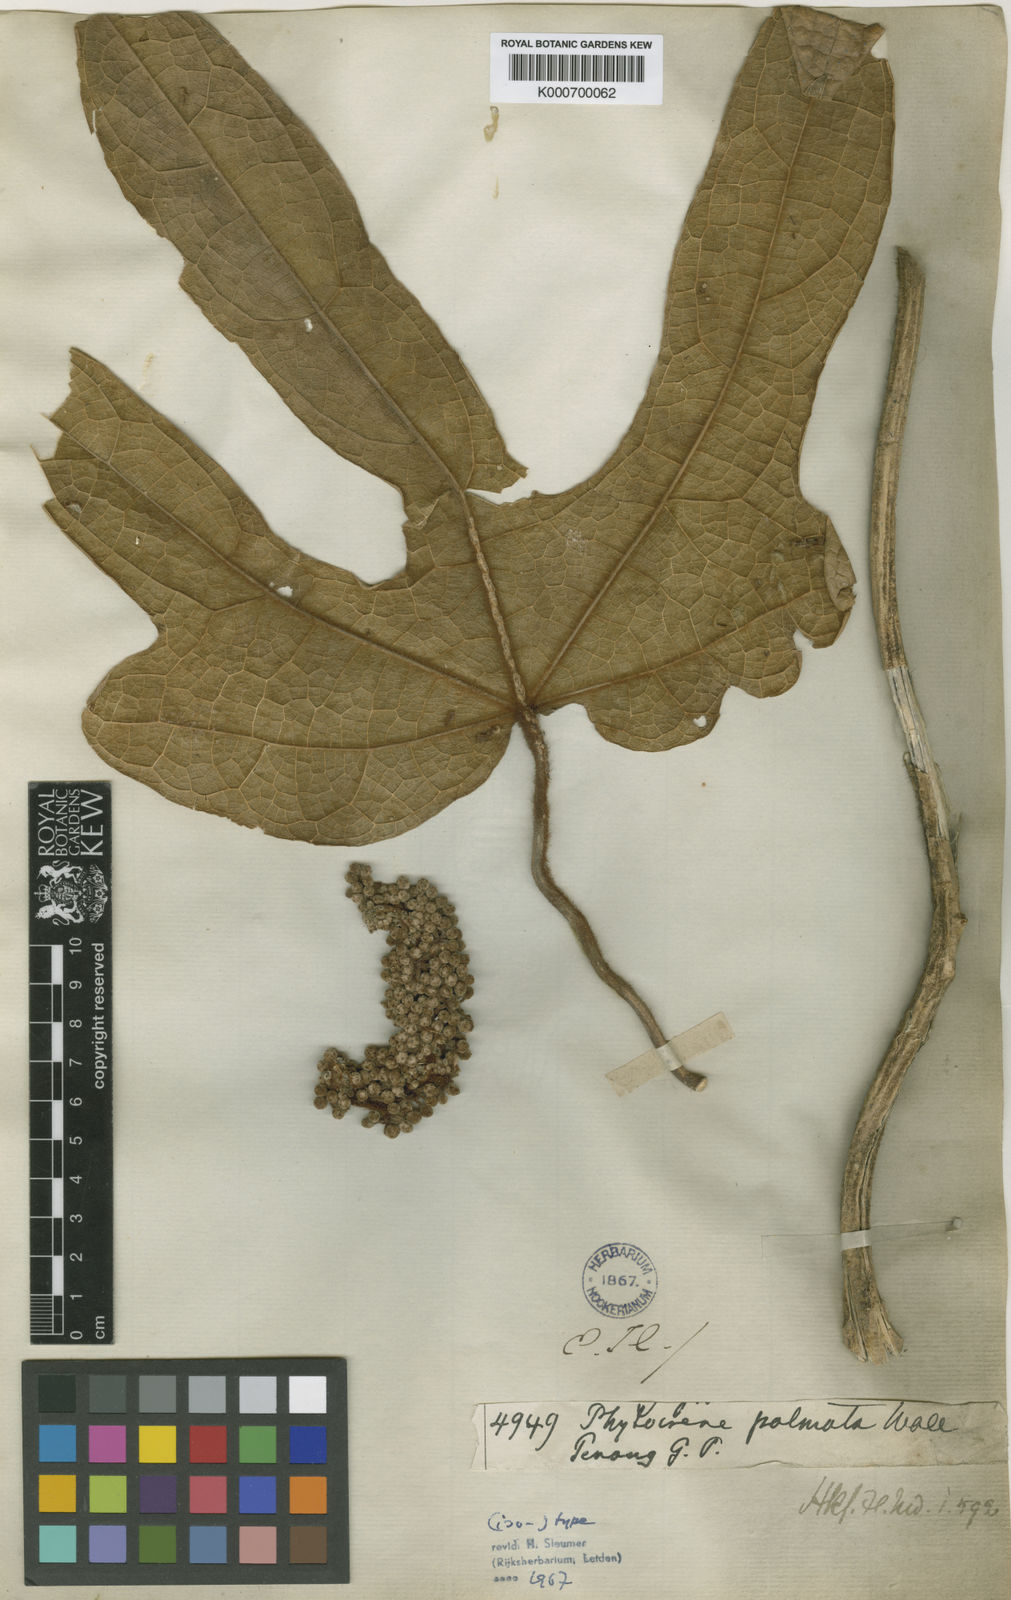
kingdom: Plantae
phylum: Tracheophyta
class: Magnoliopsida
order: Icacinales
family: Icacinaceae
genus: Phytocrene
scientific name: Phytocrene palmata
